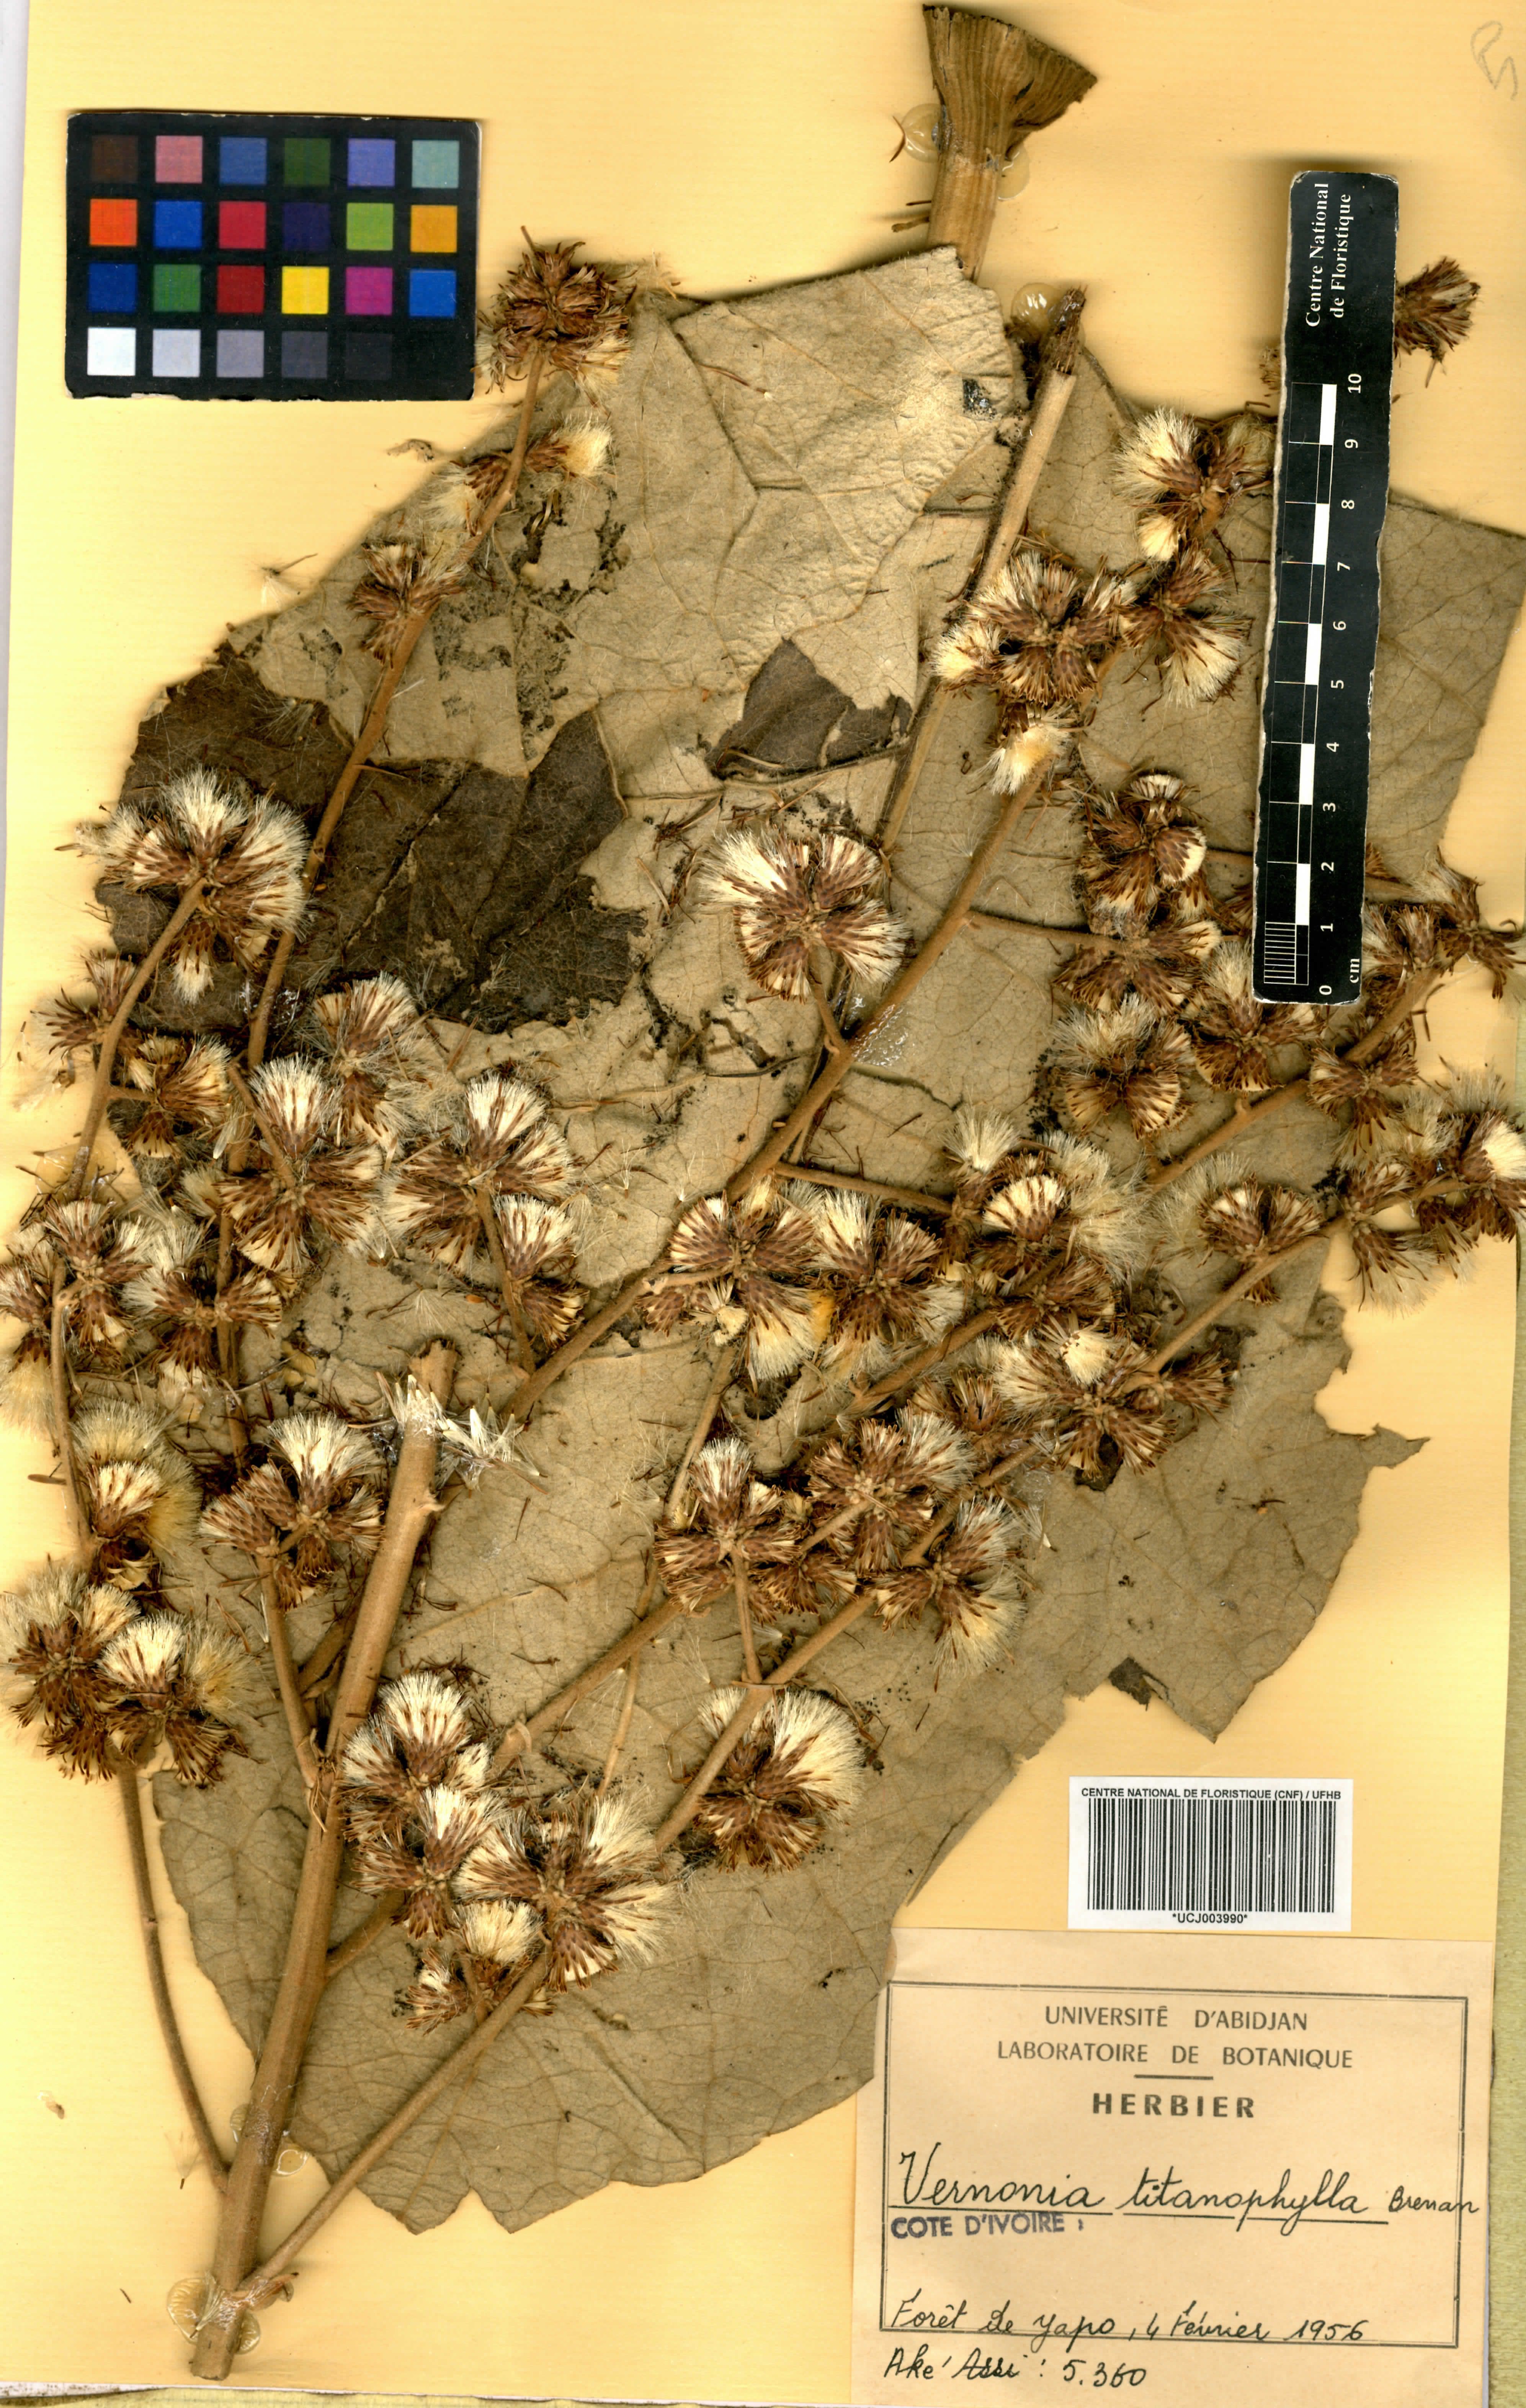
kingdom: Plantae
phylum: Tracheophyta
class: Magnoliopsida
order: Asterales
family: Asteraceae
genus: Brenandendron
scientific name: Brenandendron titanophyllum
